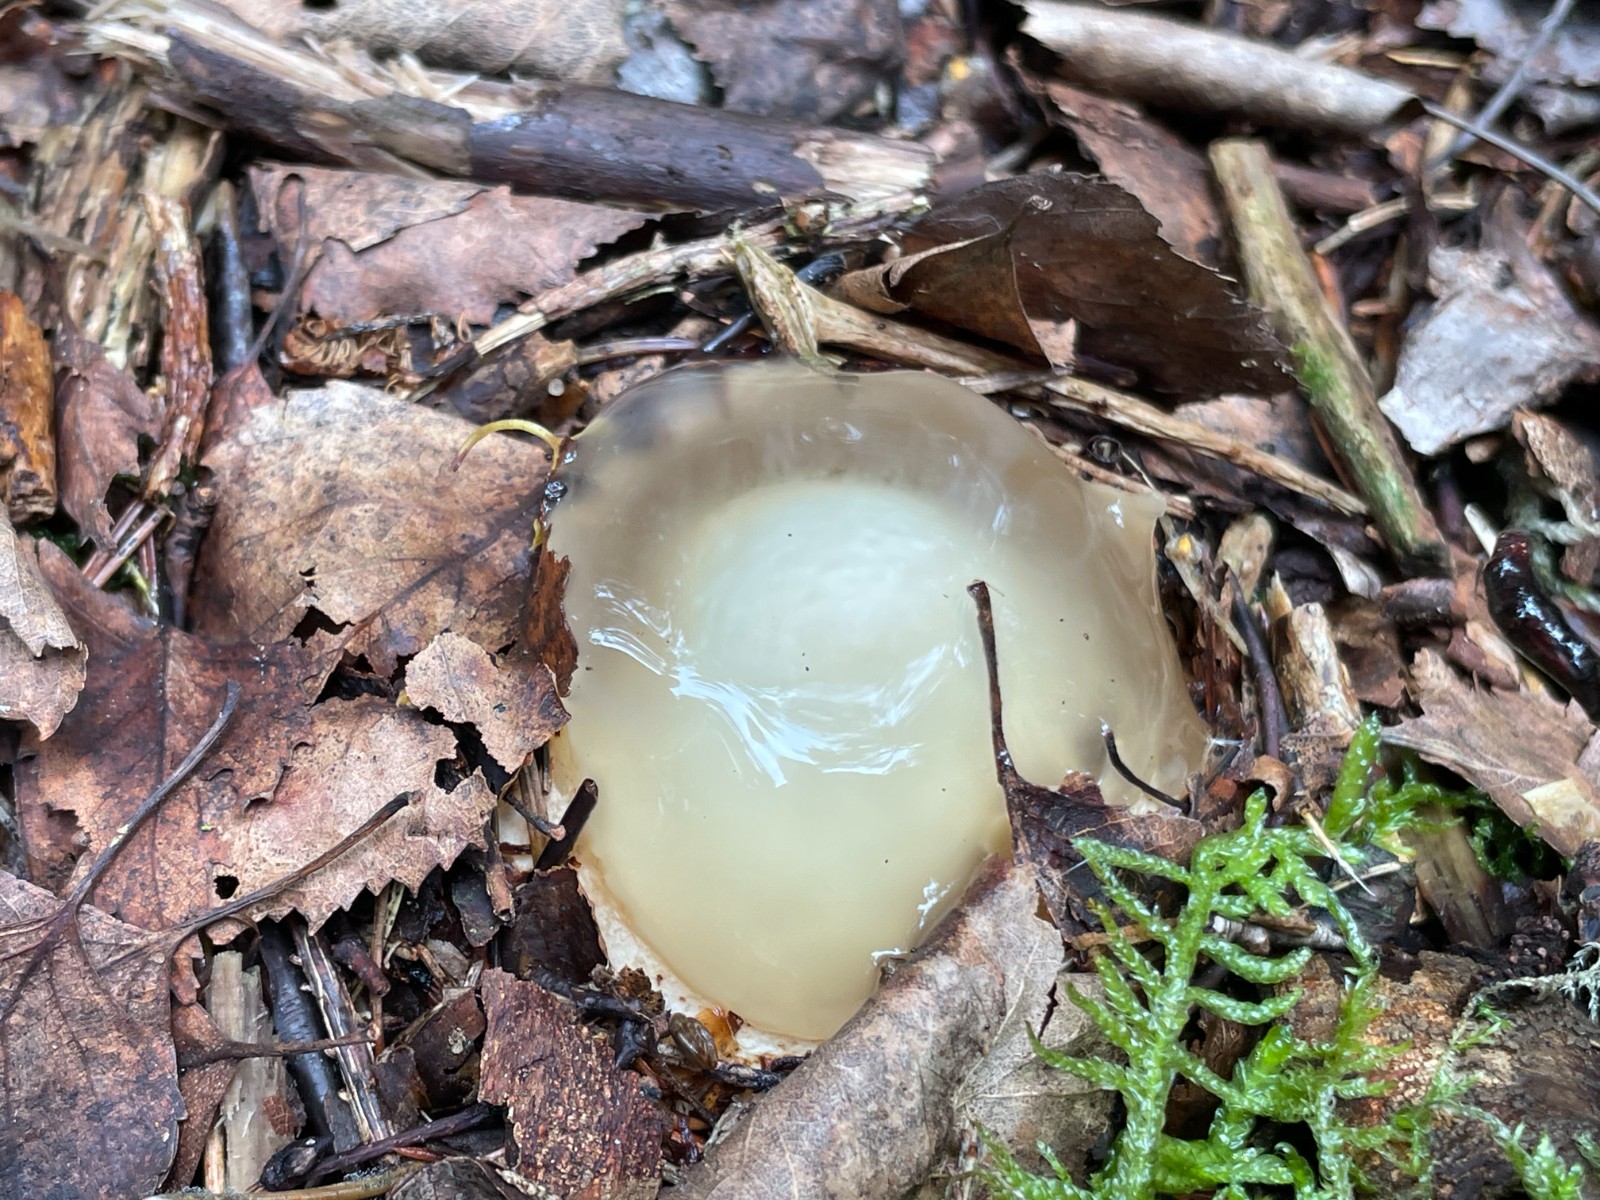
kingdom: Fungi
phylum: Basidiomycota
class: Agaricomycetes
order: Phallales
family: Phallaceae
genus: Phallus
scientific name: Phallus impudicus
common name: almindelig stinksvamp
